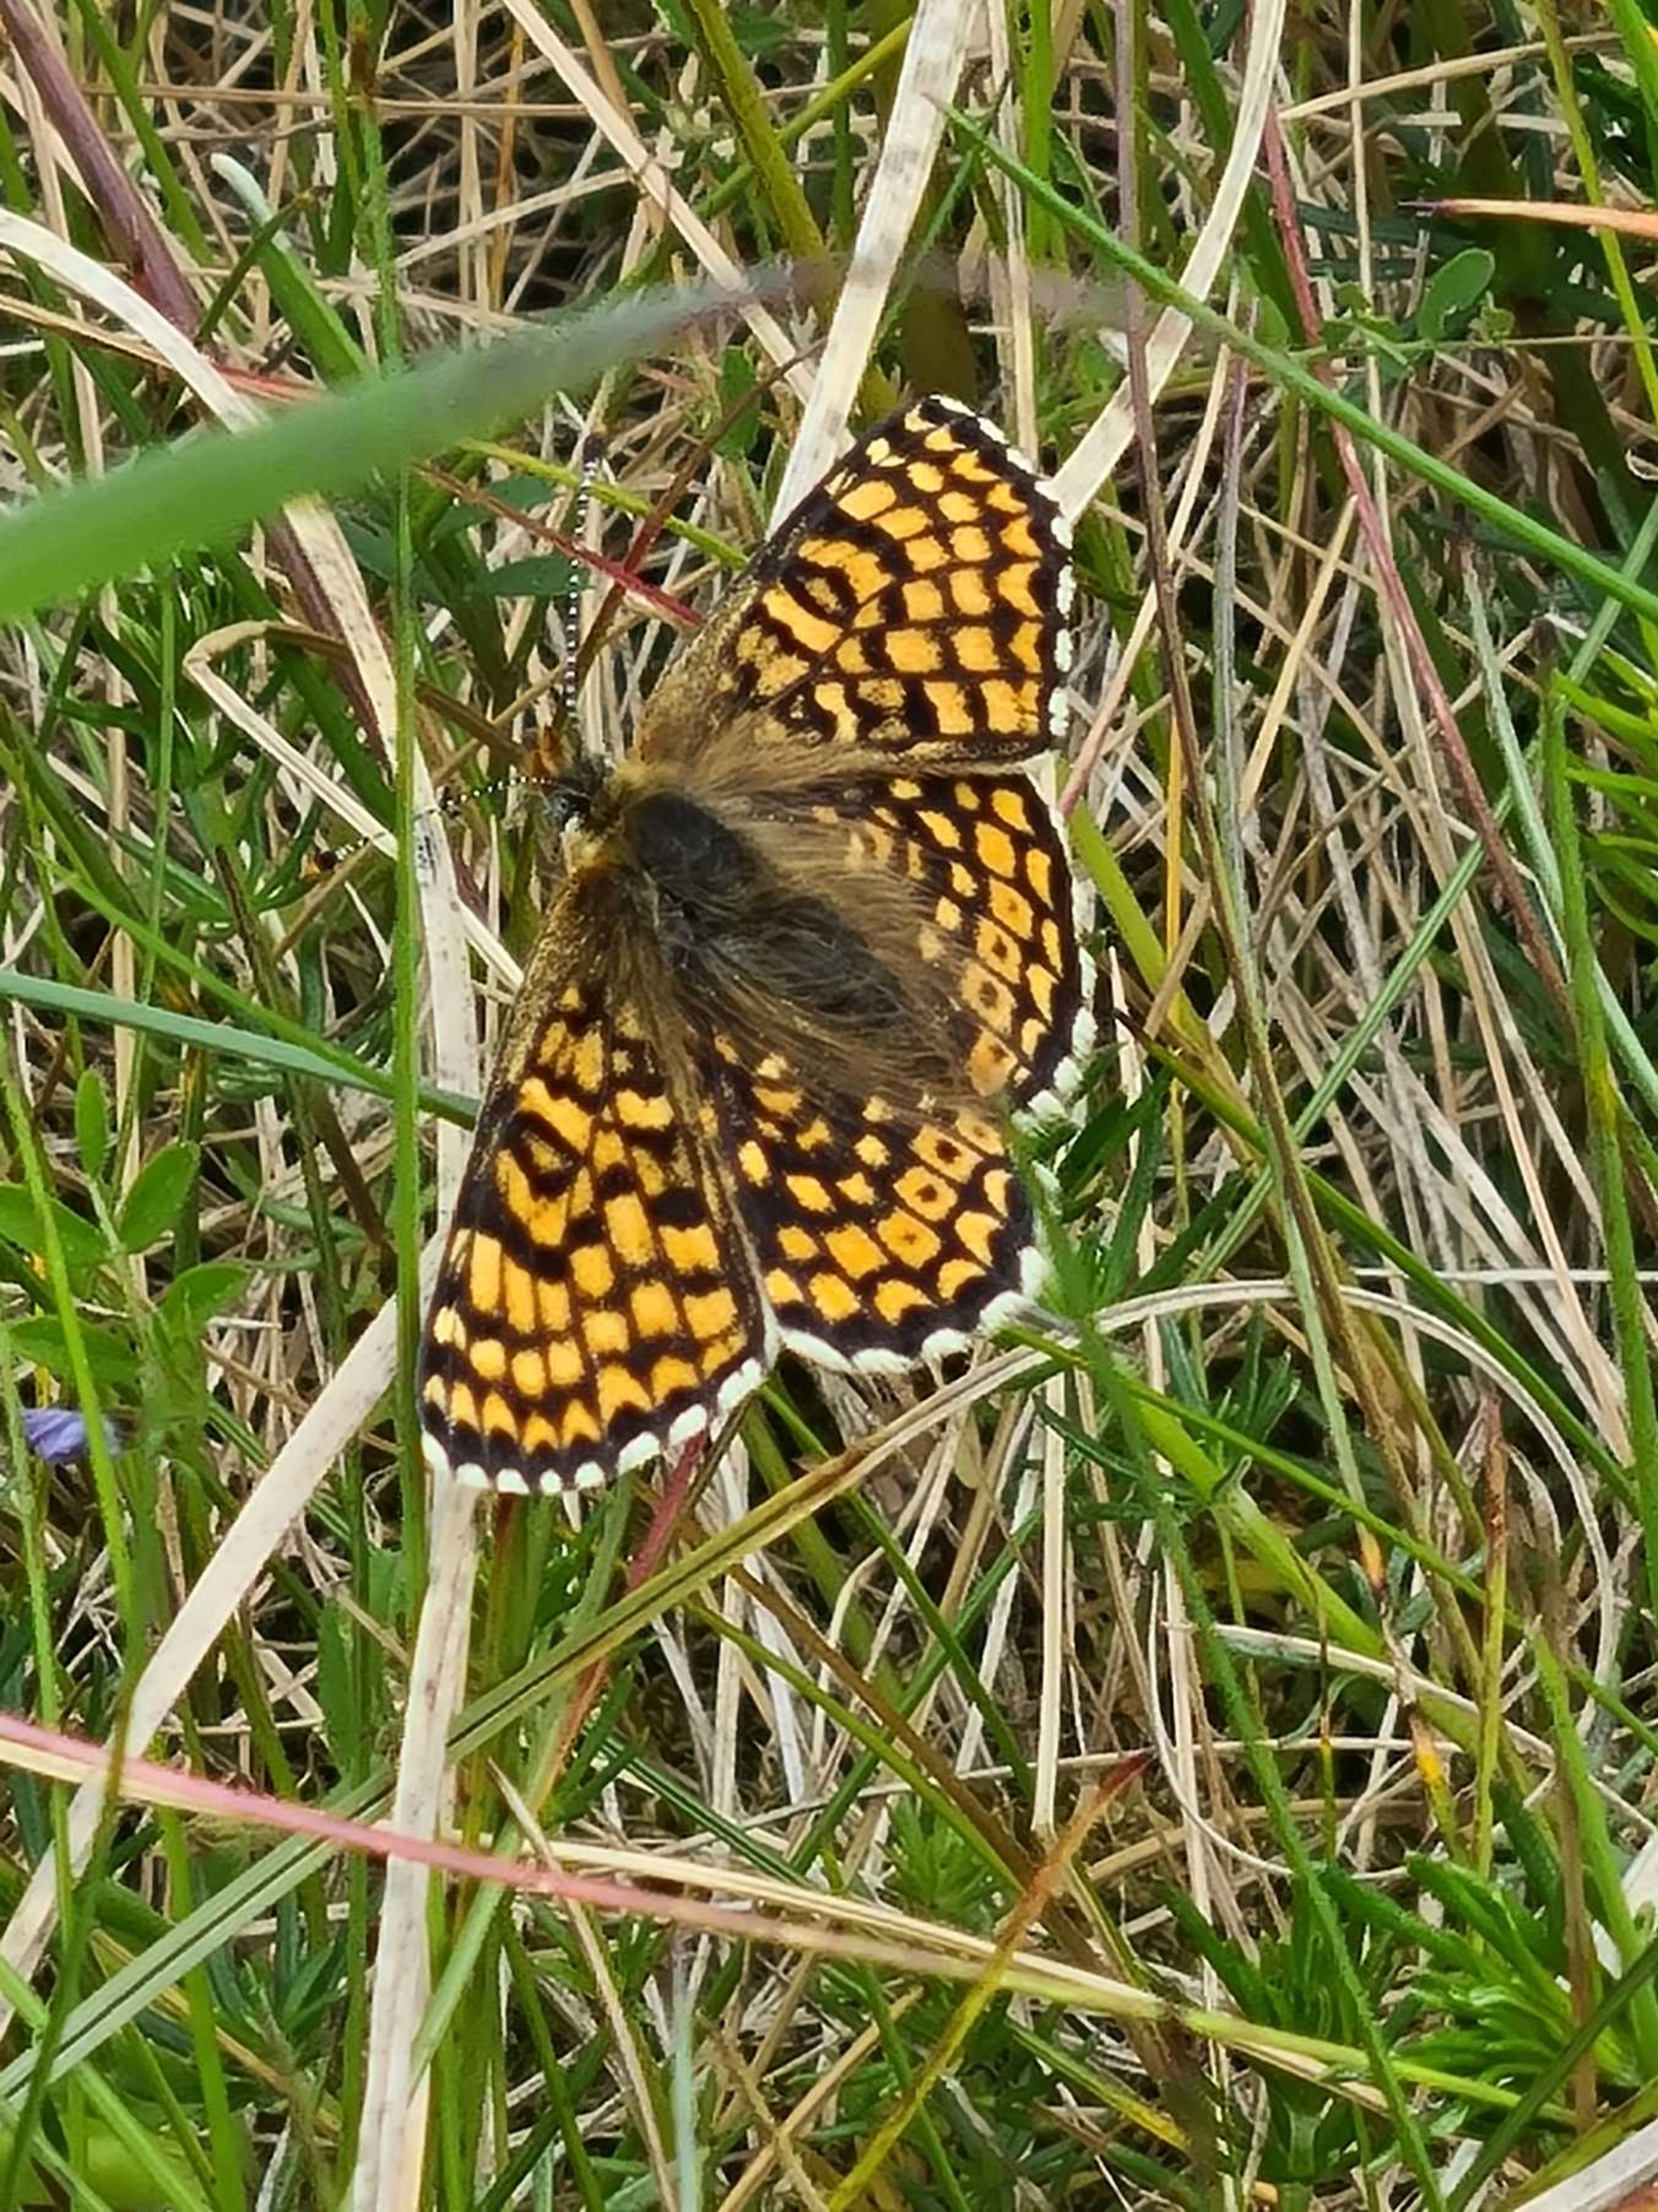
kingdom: Animalia
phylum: Arthropoda
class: Insecta
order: Lepidoptera
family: Nymphalidae
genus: Melitaea
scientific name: Melitaea cinxia
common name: Okkergul pletvinge
